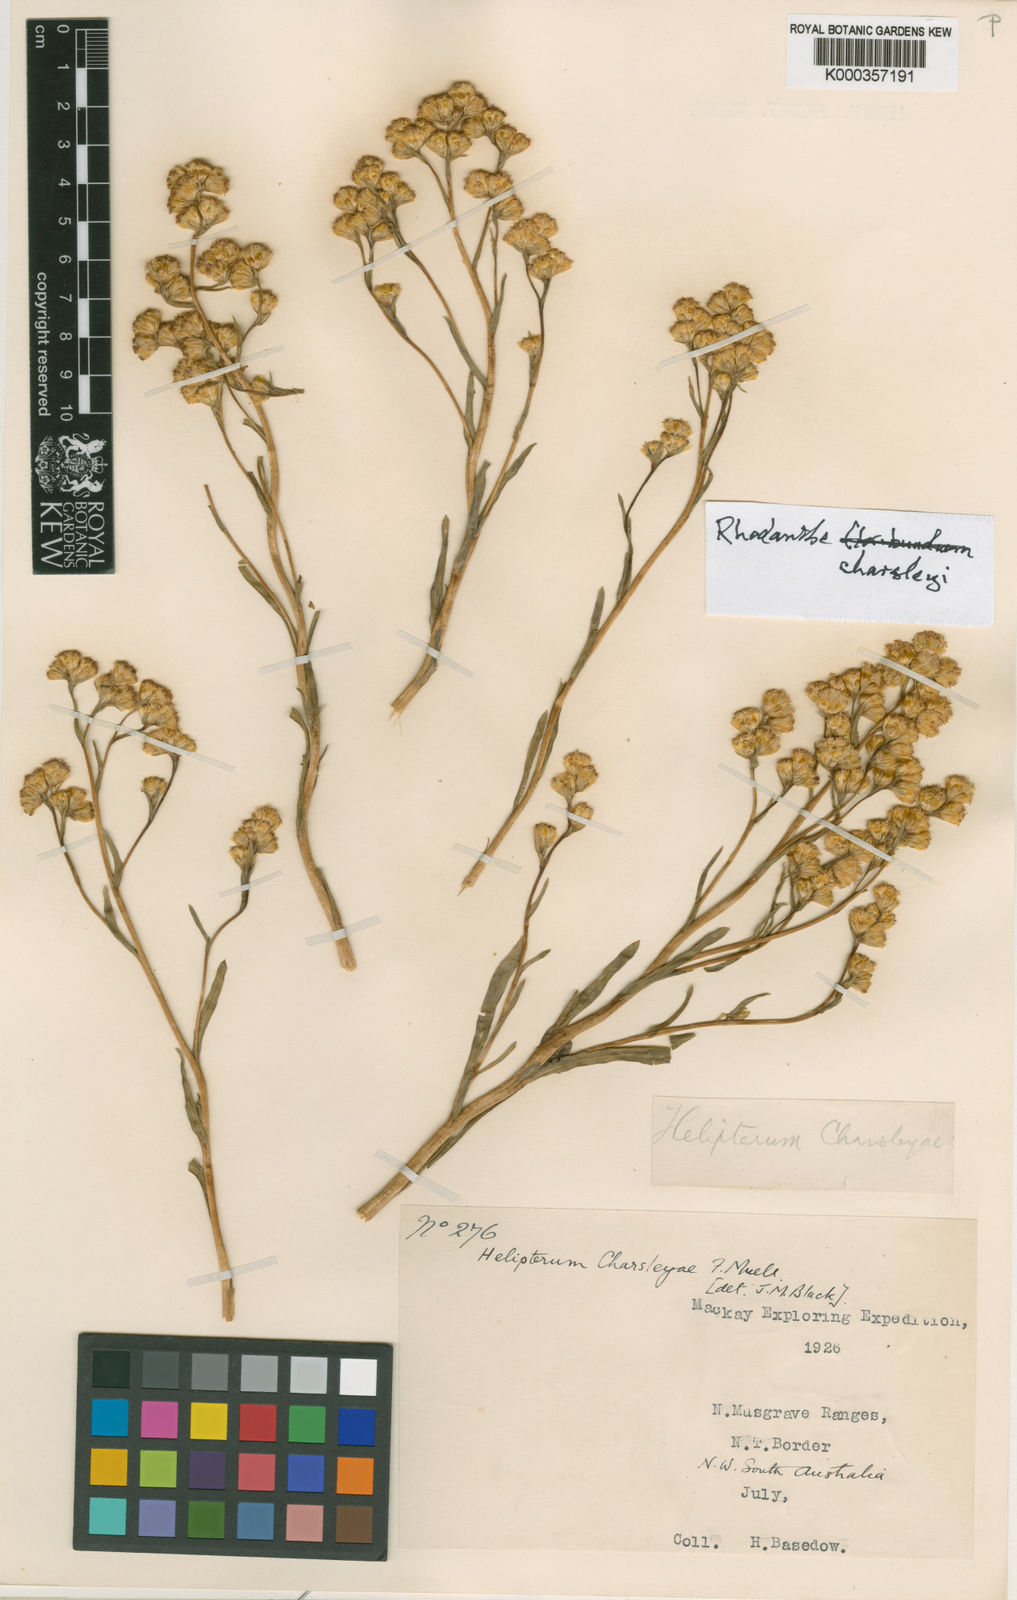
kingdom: Plantae
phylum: Tracheophyta
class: Magnoliopsida
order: Asterales
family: Asteraceae
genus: Rhodanthe
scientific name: Rhodanthe charsleyae
